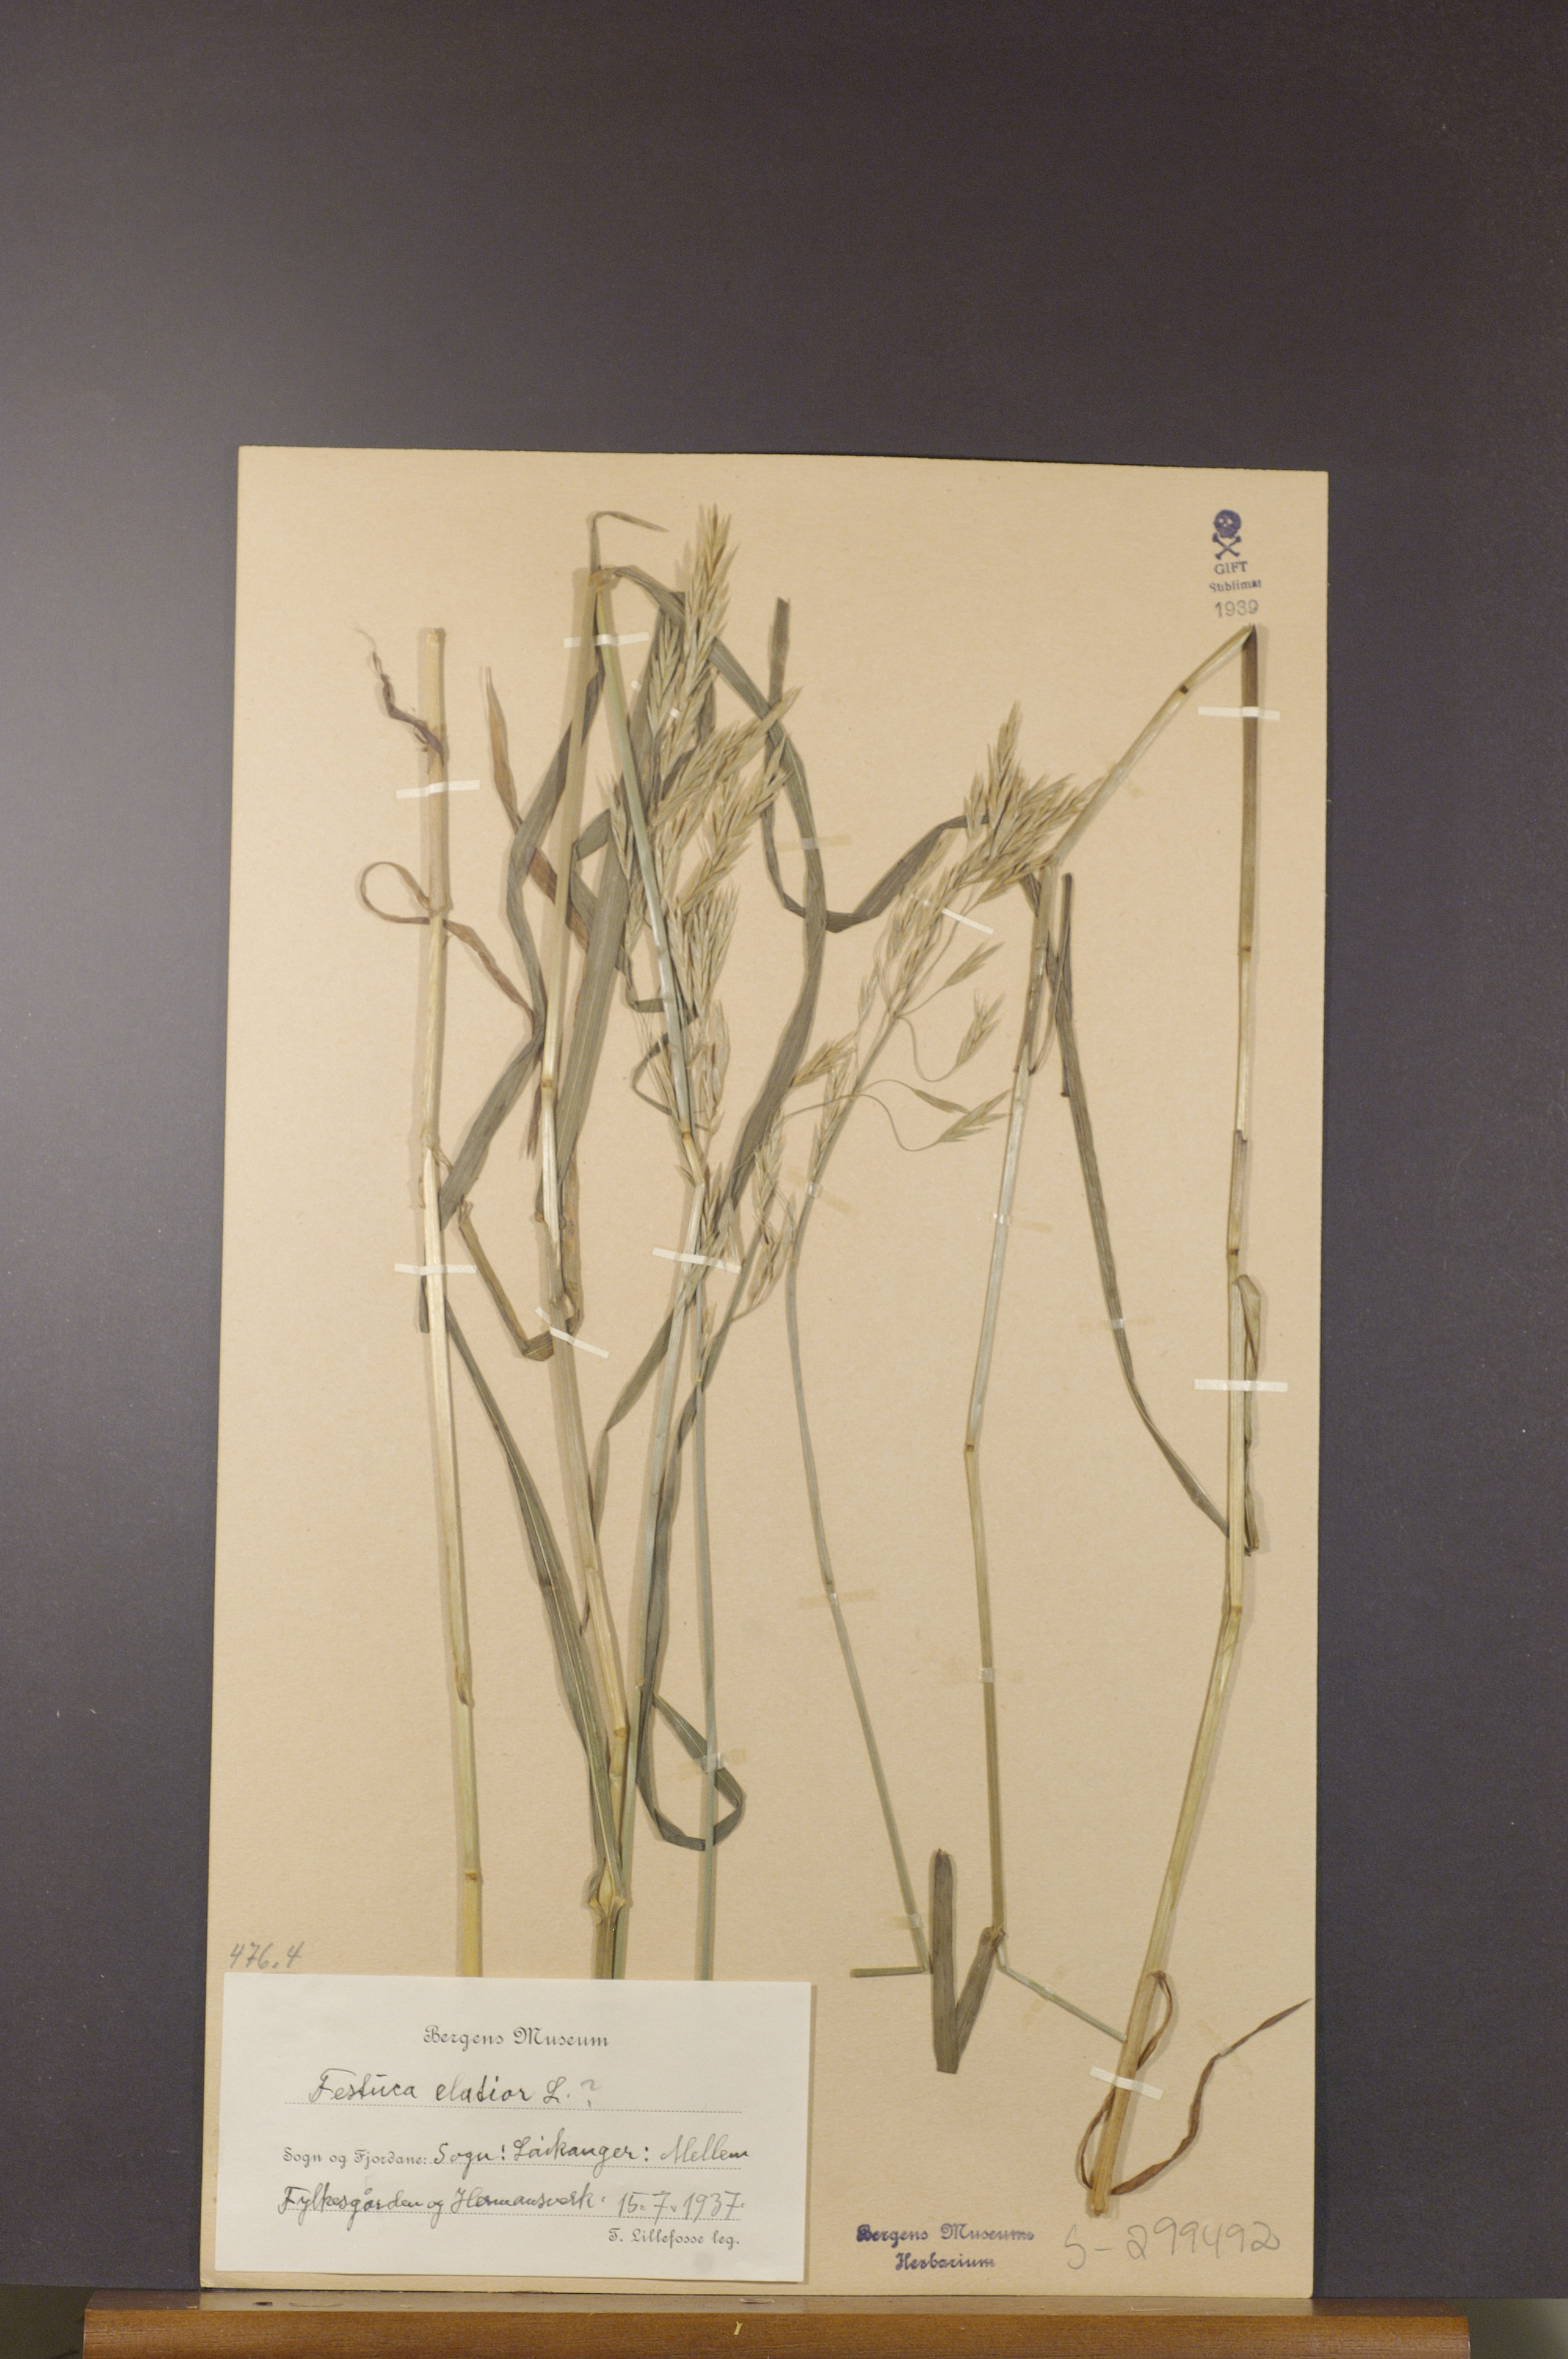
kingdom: Plantae
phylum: Tracheophyta
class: Liliopsida
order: Poales
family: Poaceae
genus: Lolium
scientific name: Lolium arundinaceum
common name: Reed fescue
